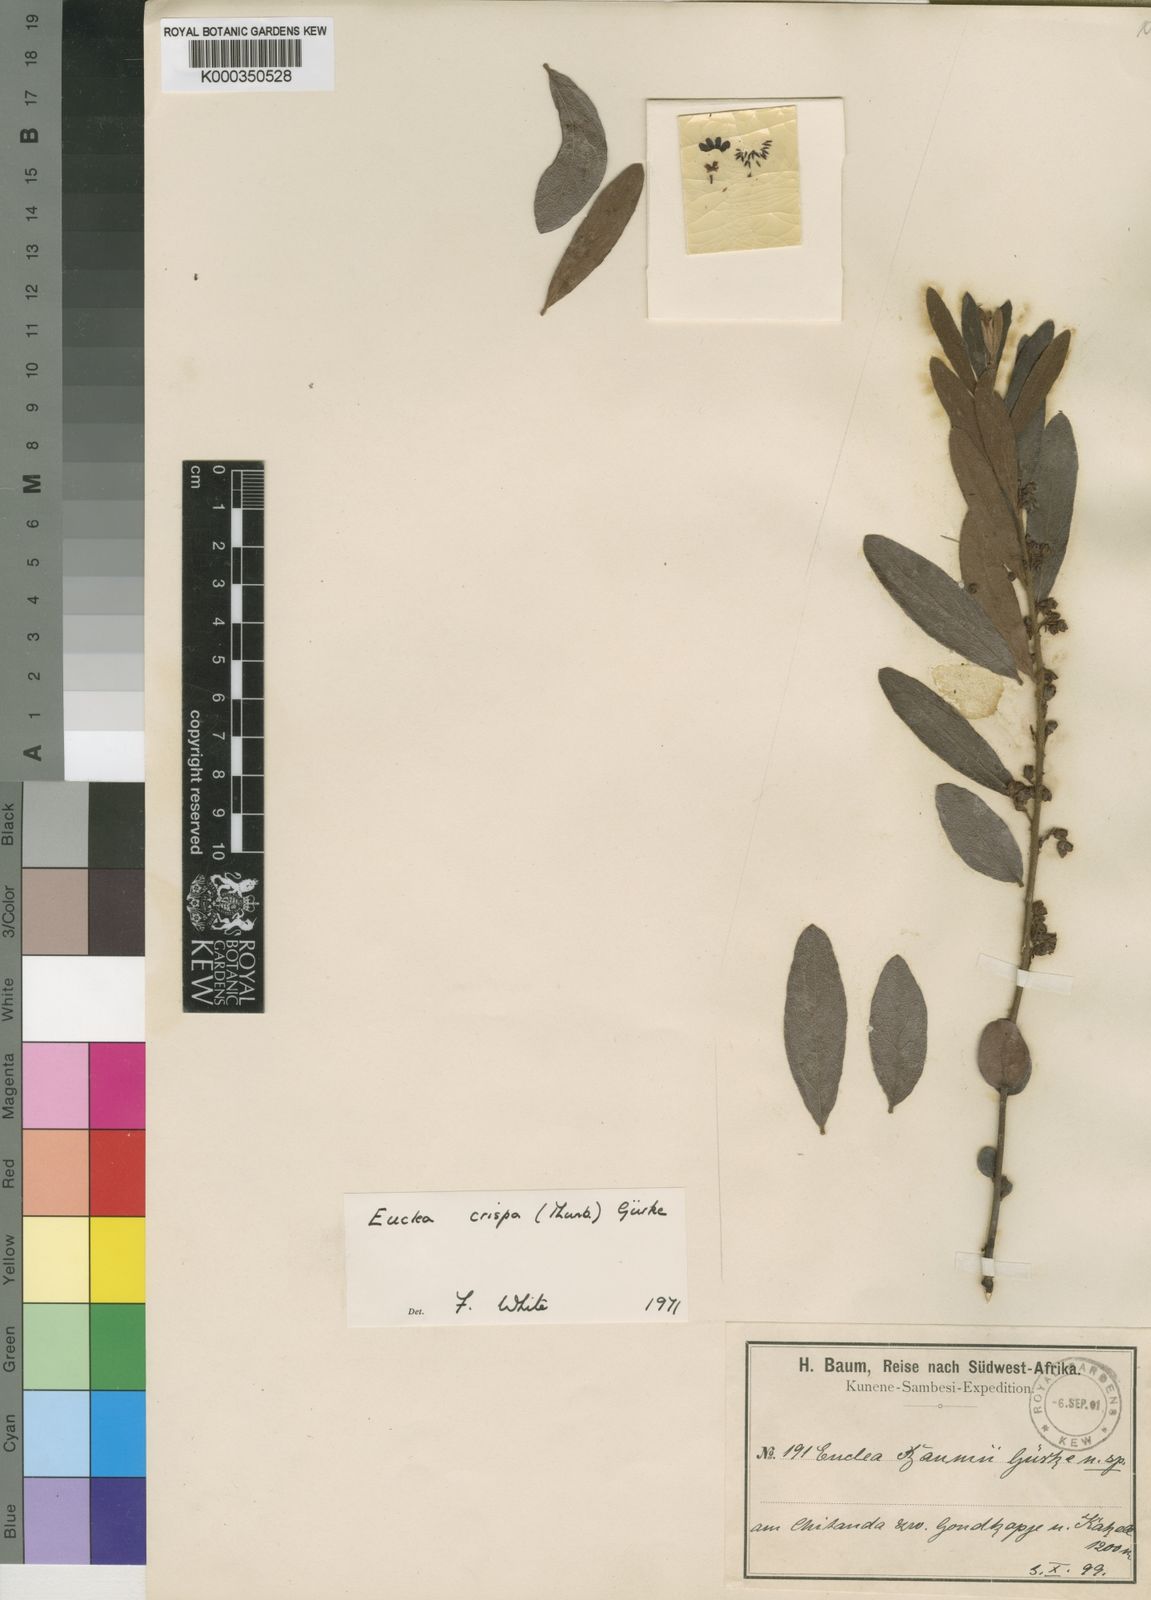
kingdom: Plantae
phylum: Tracheophyta
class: Magnoliopsida
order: Ericales
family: Ebenaceae
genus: Euclea
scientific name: Euclea
